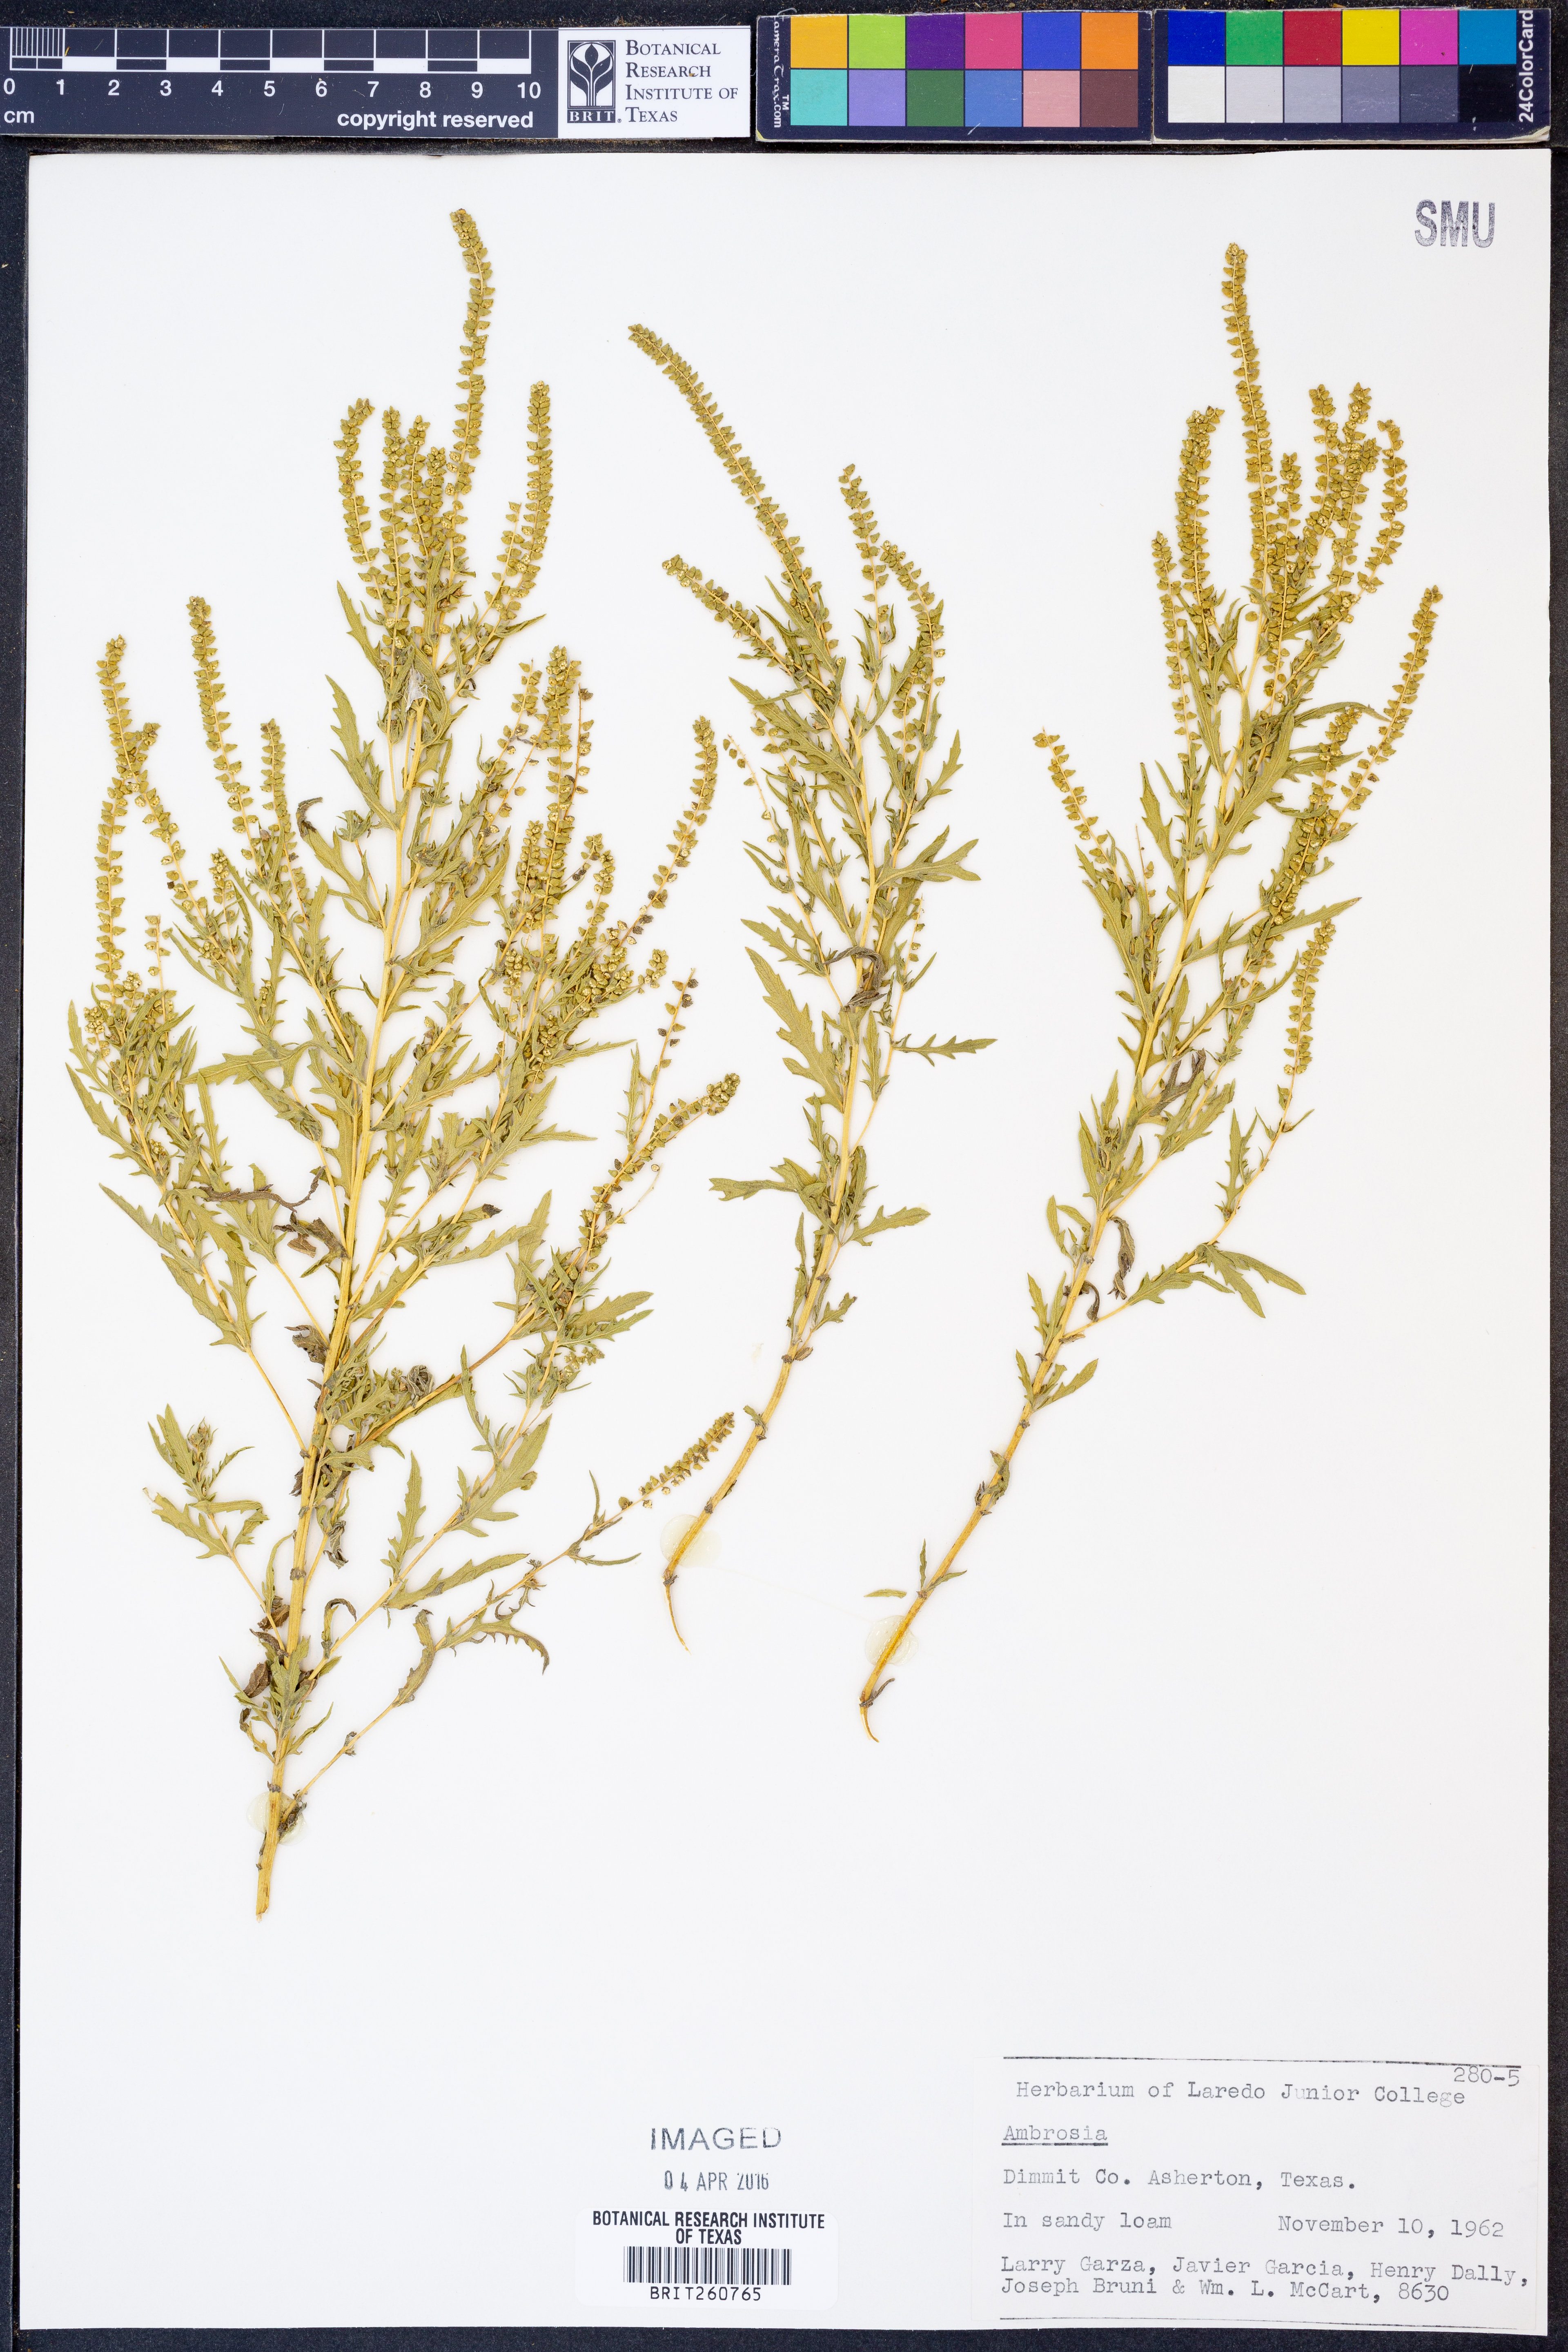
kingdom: Plantae
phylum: Tracheophyta
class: Magnoliopsida
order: Asterales
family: Asteraceae
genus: Ambrosia
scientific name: Ambrosia
